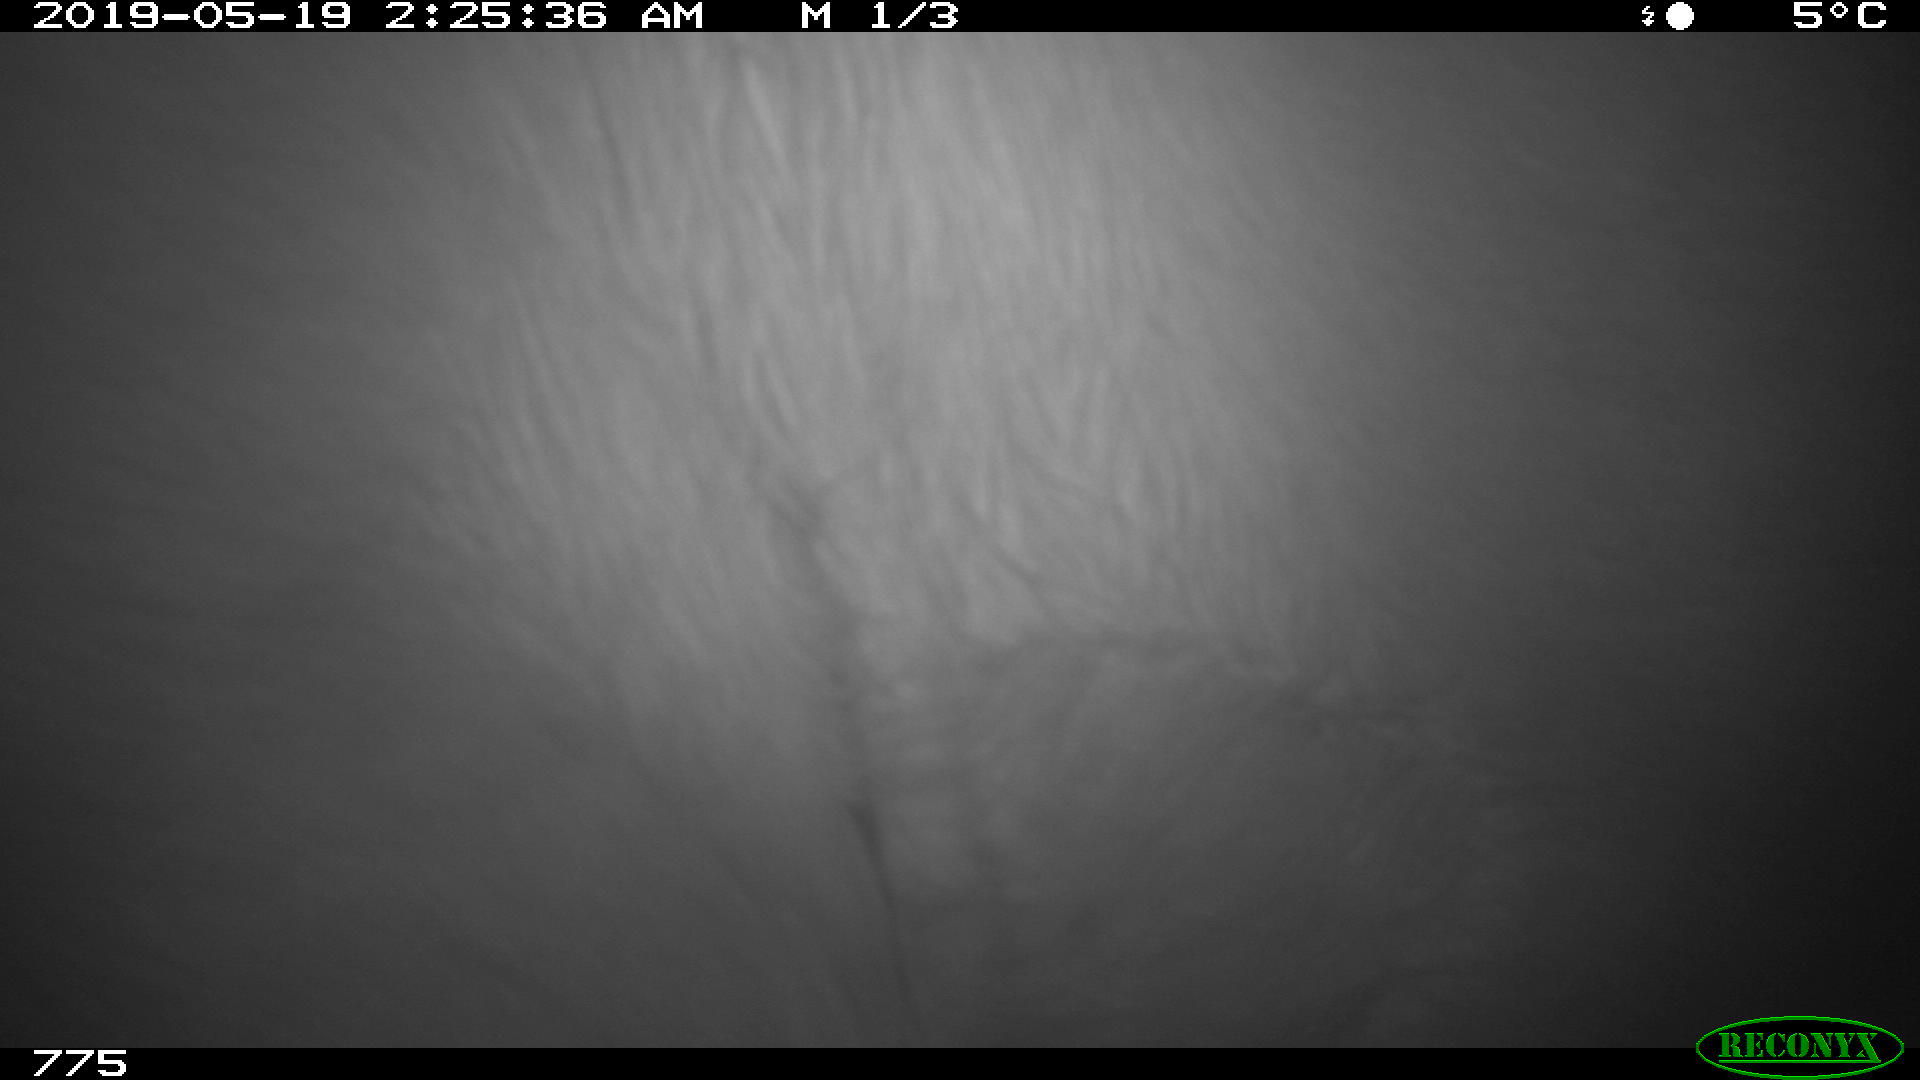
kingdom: Animalia
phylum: Chordata
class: Mammalia
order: Artiodactyla
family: Bovidae
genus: Bos
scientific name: Bos taurus
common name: Domesticated cattle
